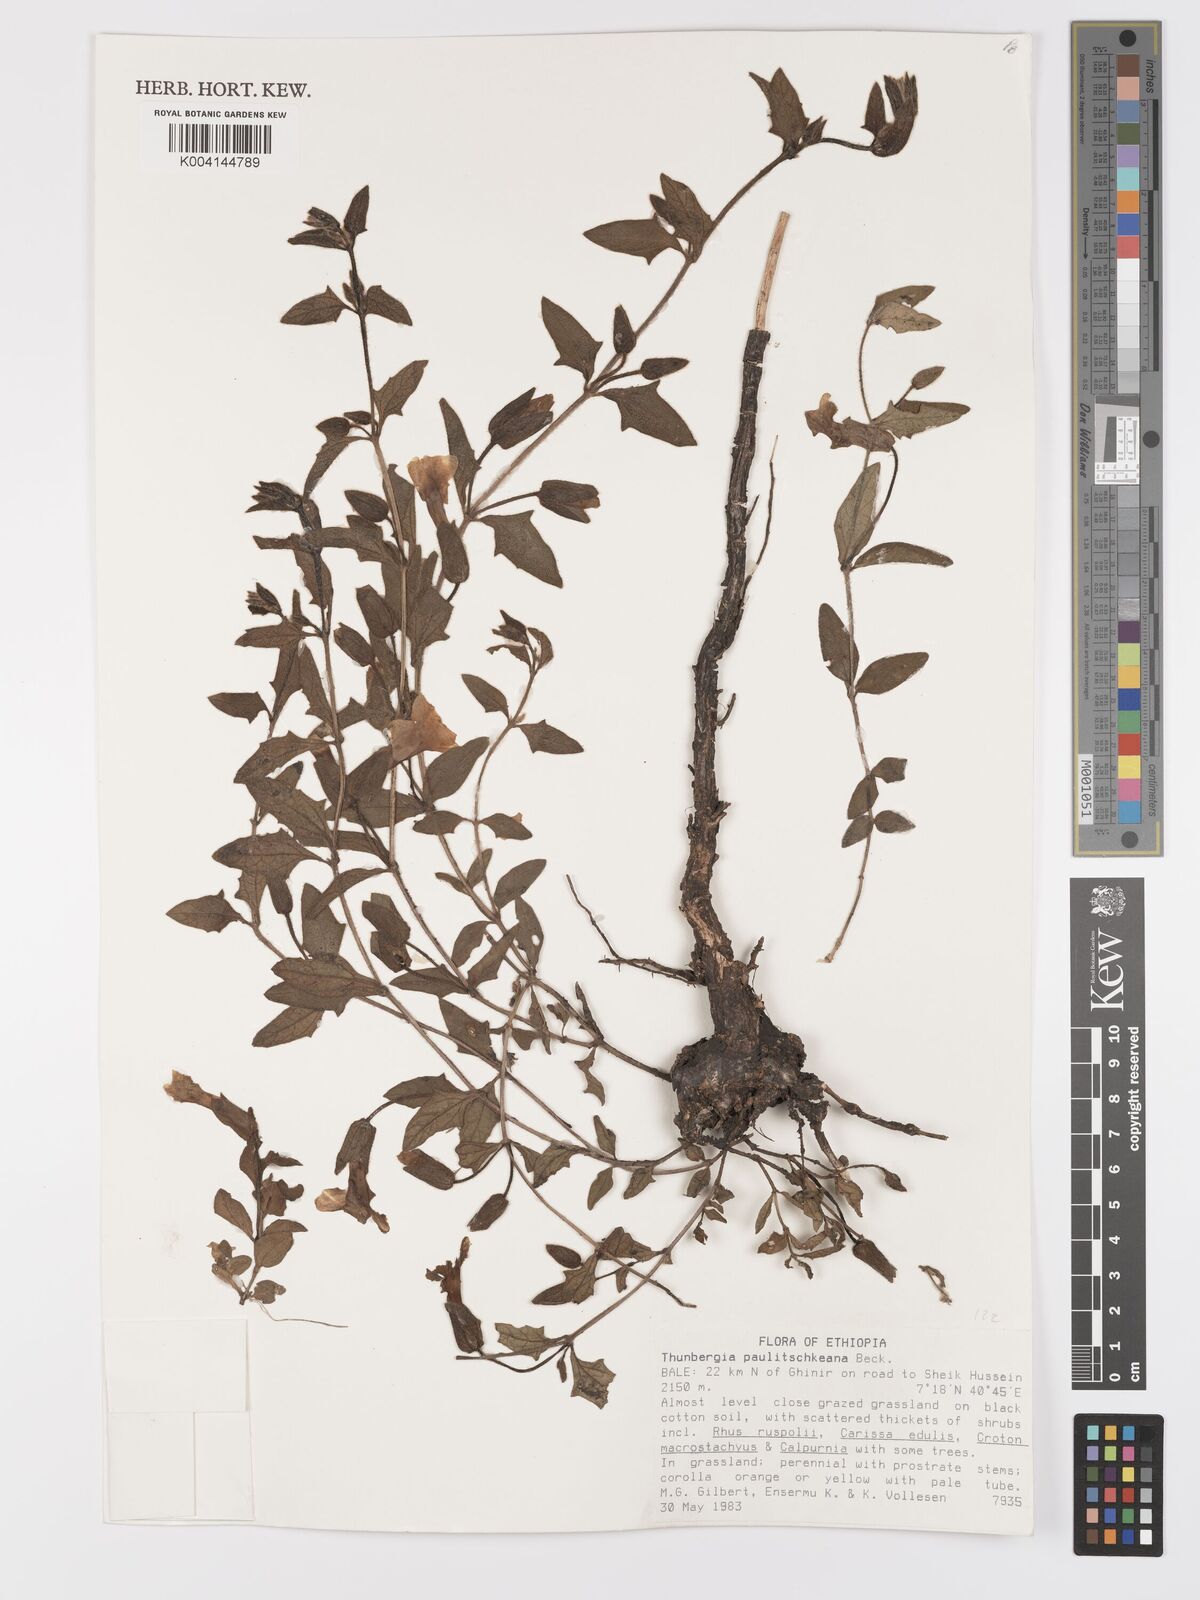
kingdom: Plantae
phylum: Tracheophyta
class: Magnoliopsida
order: Lamiales
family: Acanthaceae
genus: Thunbergia
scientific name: Thunbergia paulitschkeana
